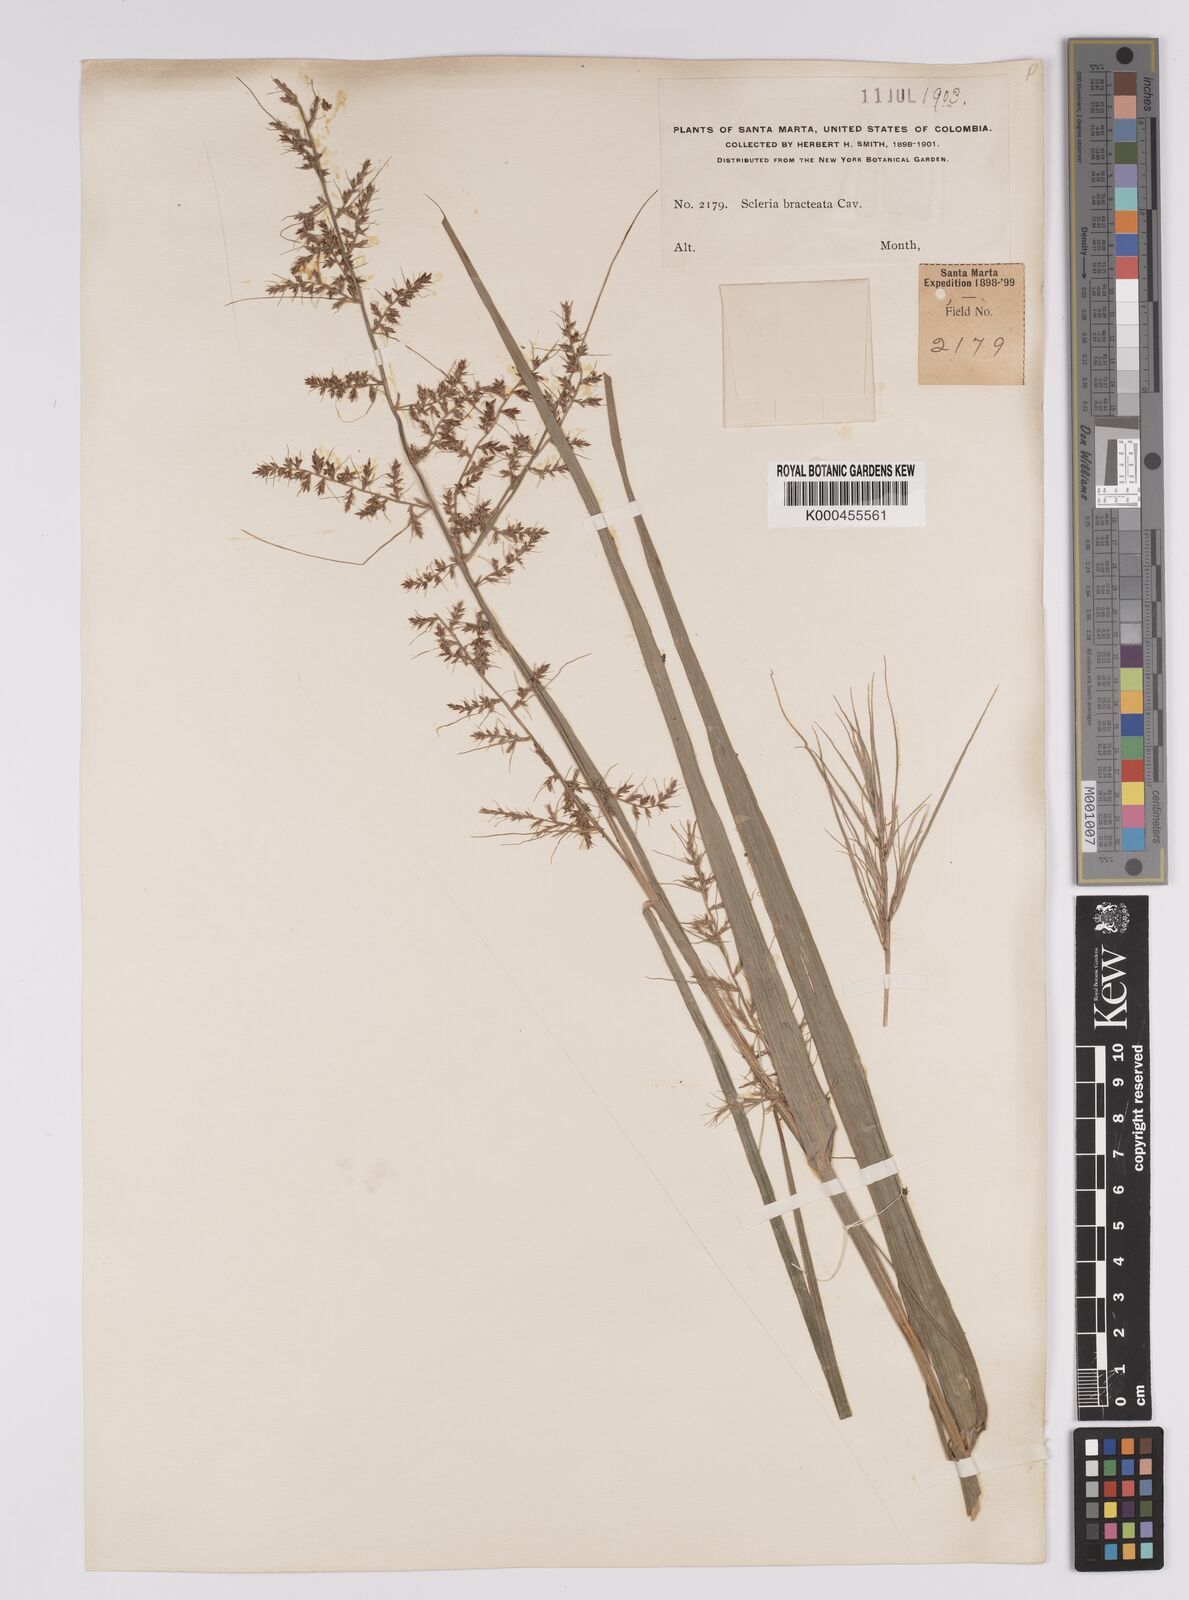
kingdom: Plantae
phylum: Tracheophyta
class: Liliopsida
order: Poales
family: Cyperaceae
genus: Scleria
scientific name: Scleria bracteata
